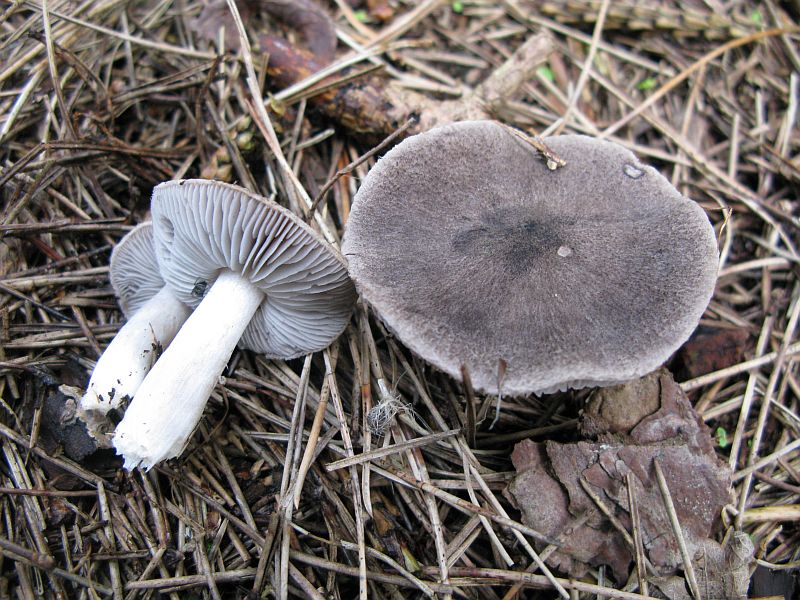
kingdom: Fungi
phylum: Basidiomycota
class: Agaricomycetes
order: Agaricales
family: Tricholomataceae
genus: Tricholoma
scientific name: Tricholoma terreum
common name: jordfarvet ridderhat
